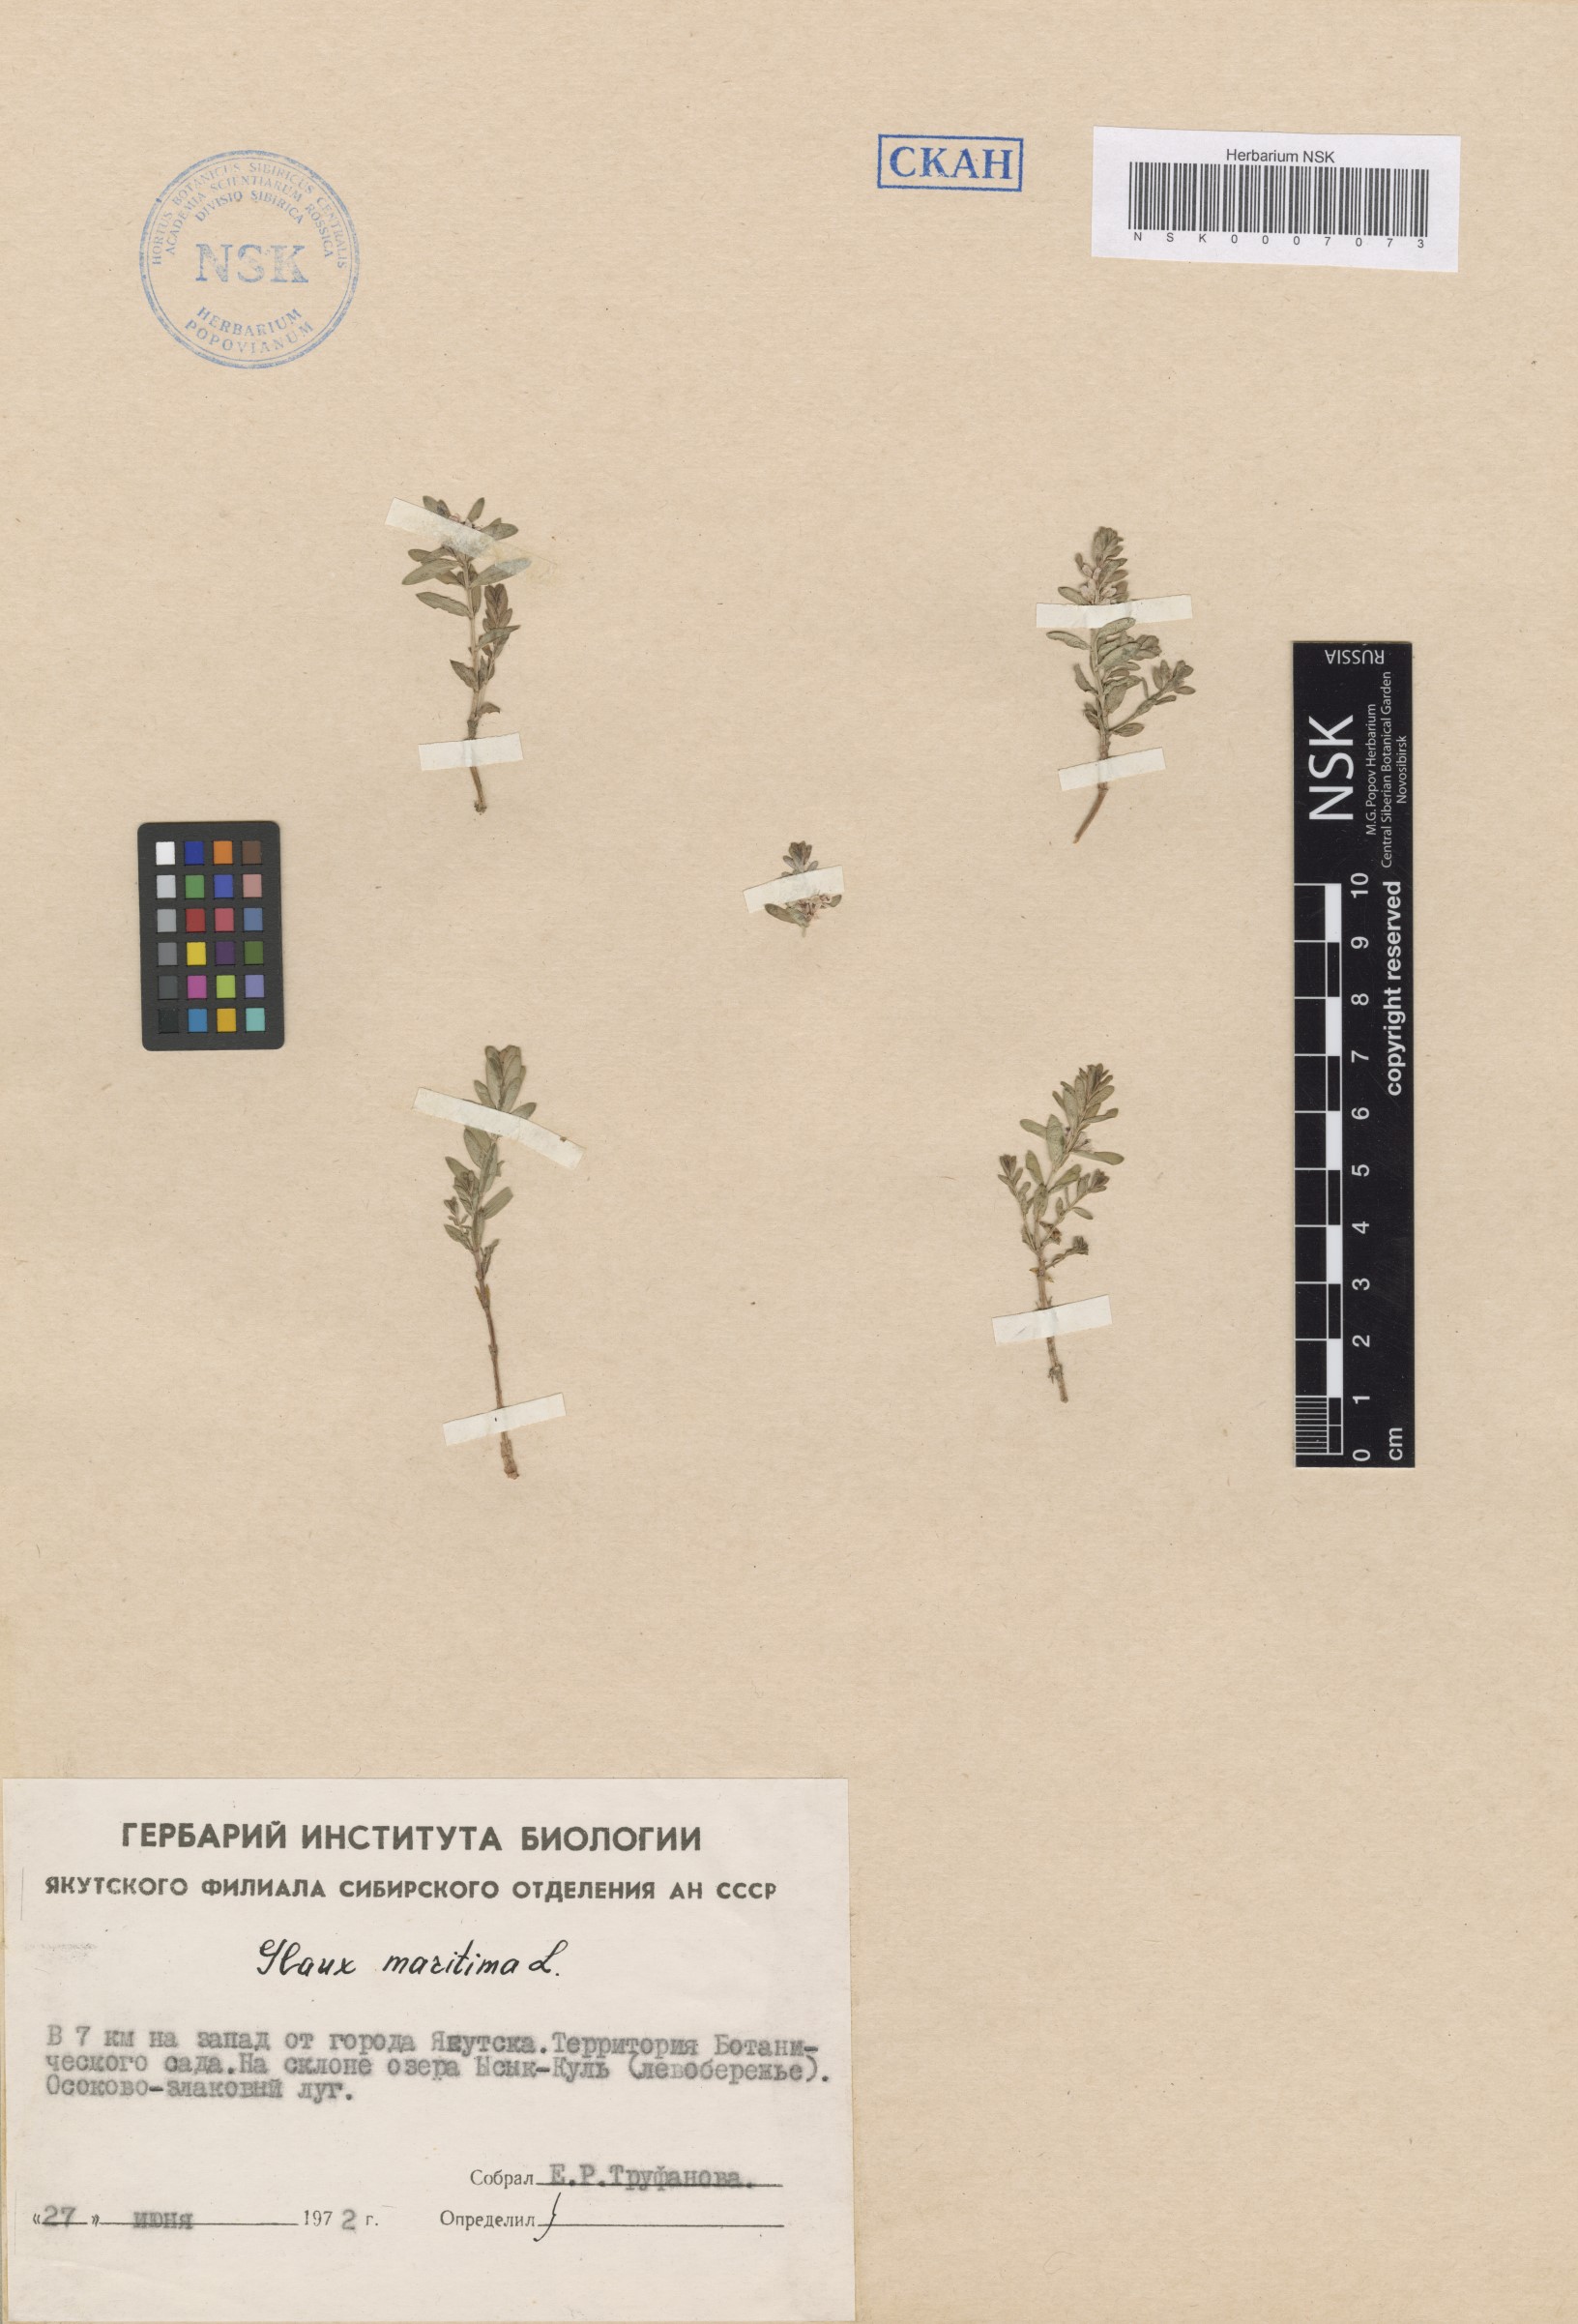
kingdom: Plantae
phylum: Tracheophyta
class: Magnoliopsida
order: Ericales
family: Primulaceae
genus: Lysimachia
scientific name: Lysimachia maritima
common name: Sea milkwort
